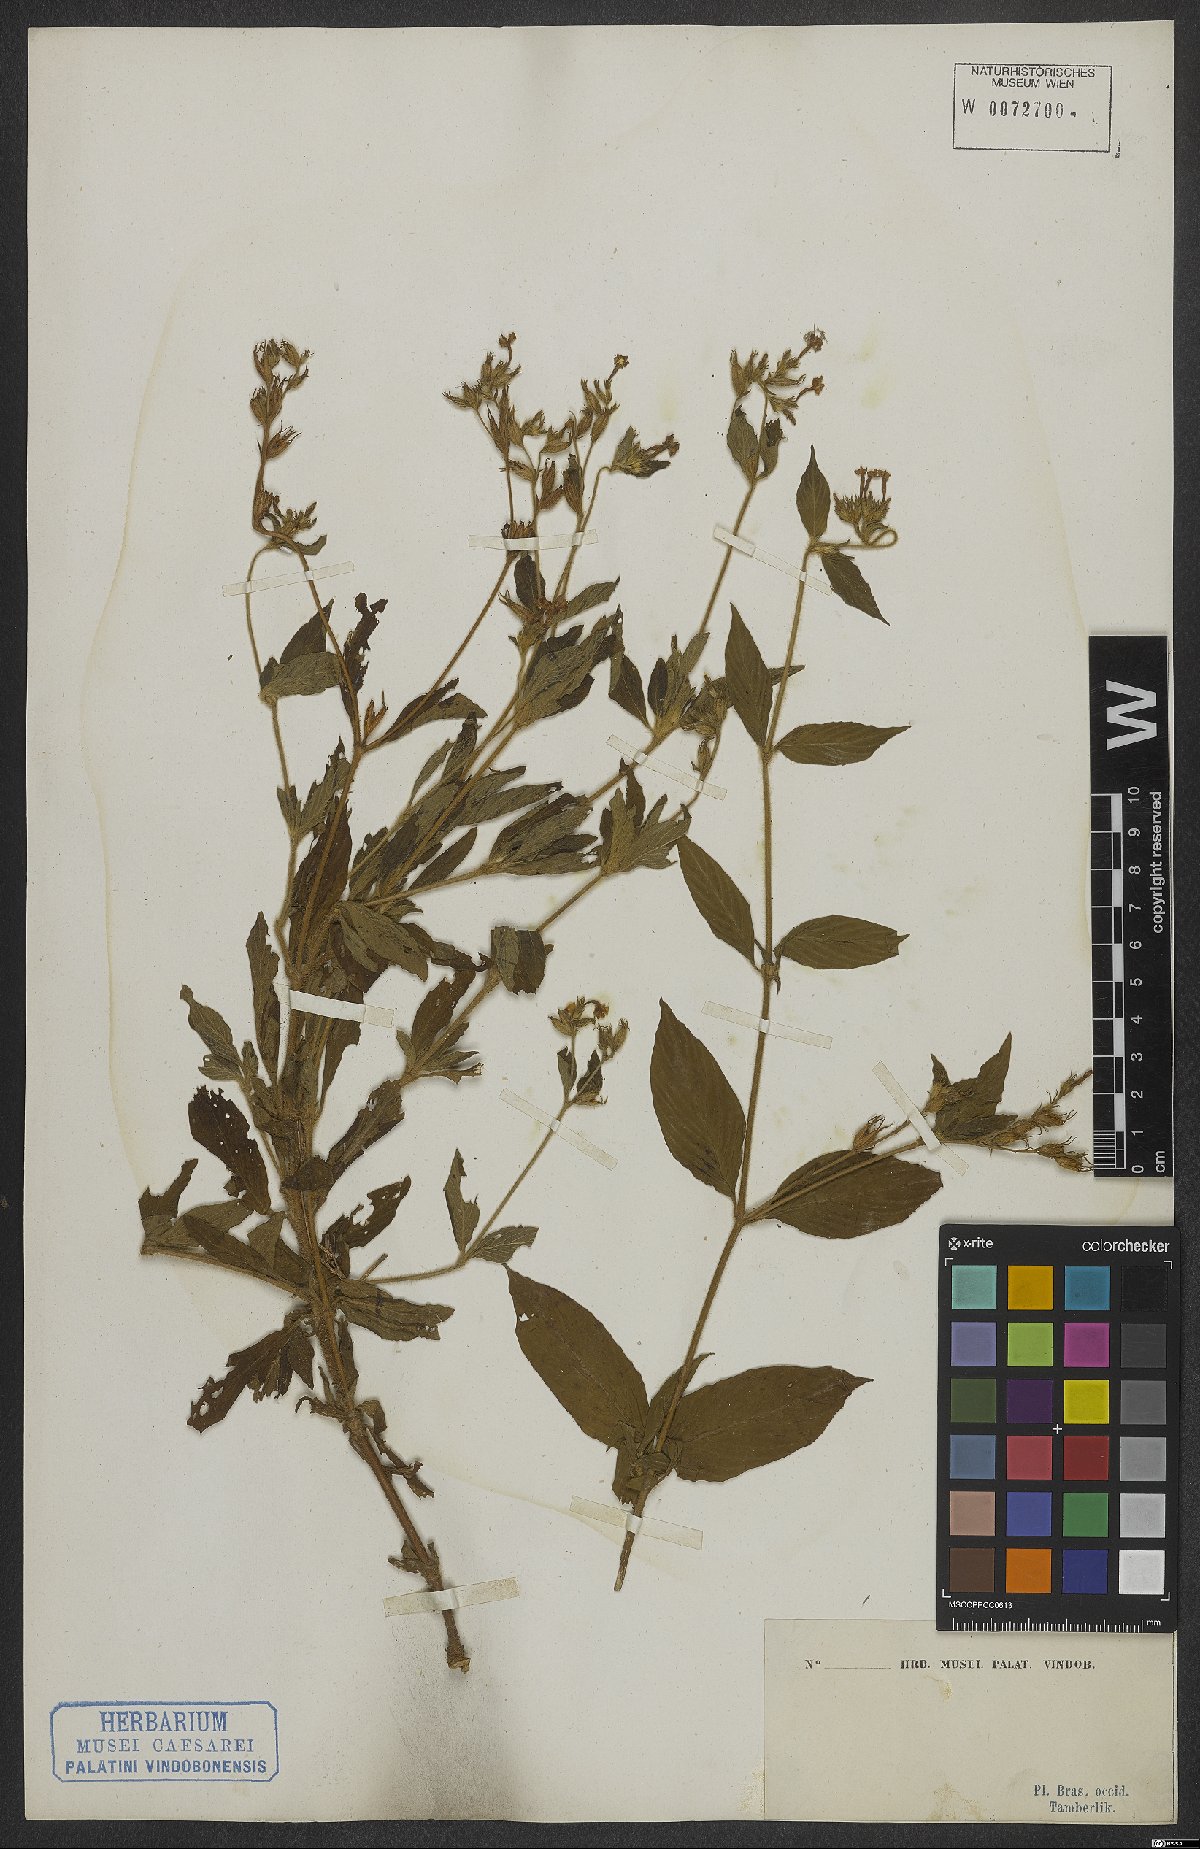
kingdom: Plantae
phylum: Tracheophyta
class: Magnoliopsida
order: Gentianales
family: Rubiaceae
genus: Sipanea
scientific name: Sipanea
